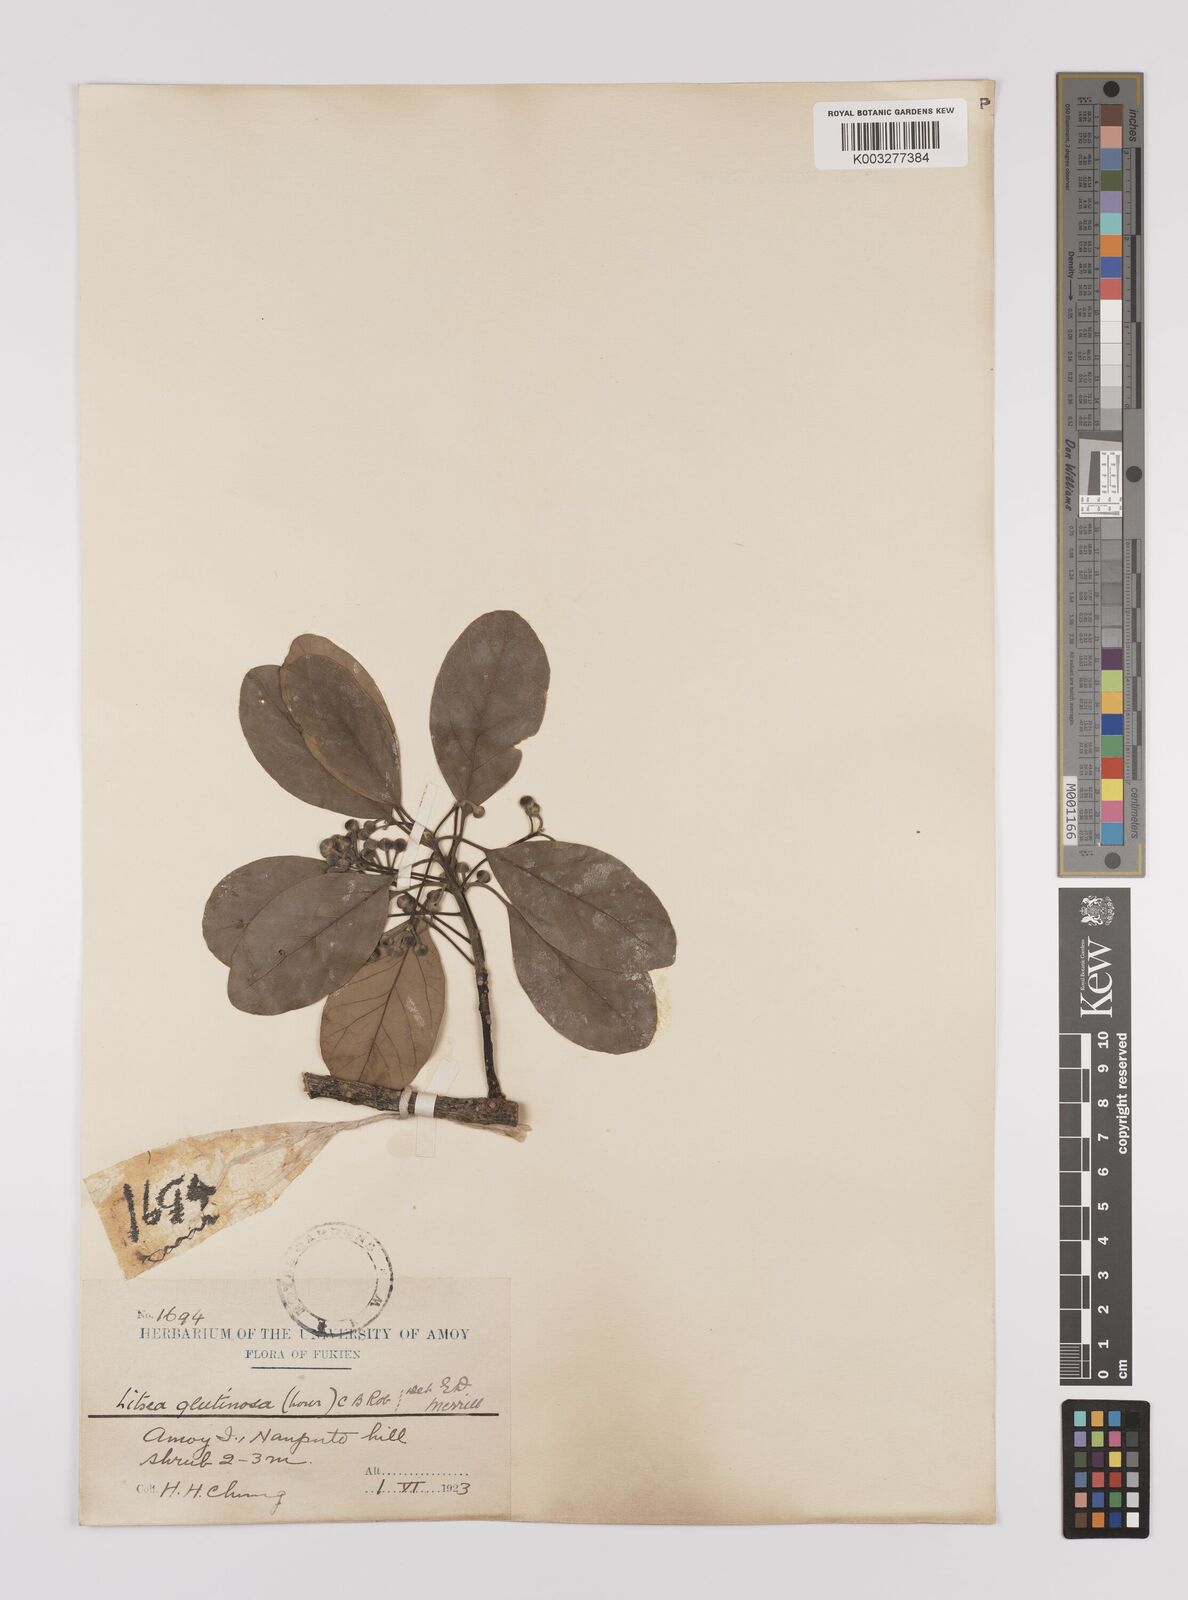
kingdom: Plantae
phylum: Tracheophyta
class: Magnoliopsida
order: Laurales
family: Lauraceae
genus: Litsea
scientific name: Litsea glutinosa
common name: Indian-laurel
